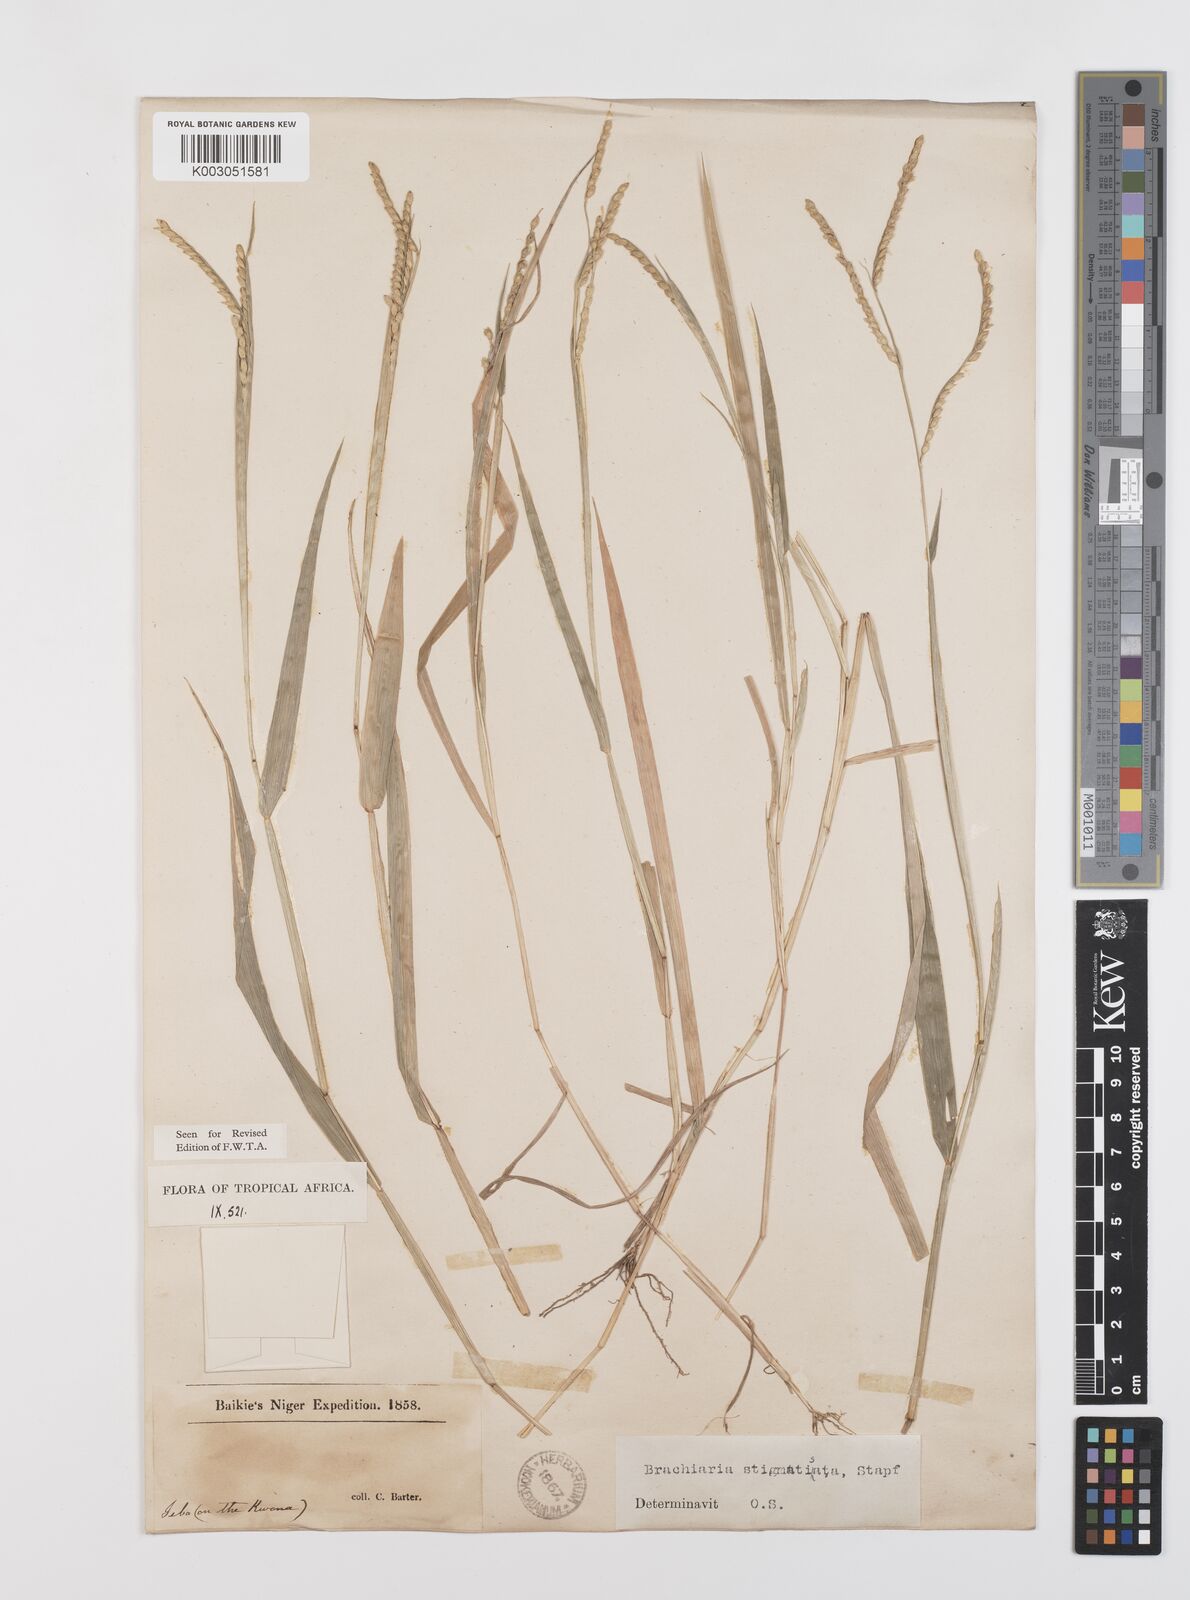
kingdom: Plantae
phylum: Tracheophyta
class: Liliopsida
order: Poales
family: Poaceae
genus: Urochloa
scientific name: Urochloa stigmatisata
